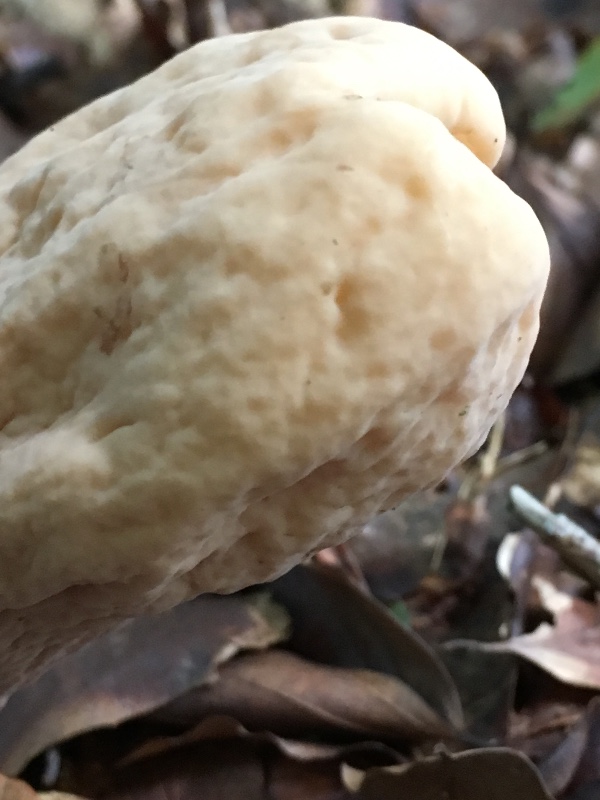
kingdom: Fungi
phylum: Basidiomycota
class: Agaricomycetes
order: Gomphales
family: Clavariadelphaceae
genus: Clavariadelphus
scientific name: Clavariadelphus pistillaris
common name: herkules-kæmpekølle
